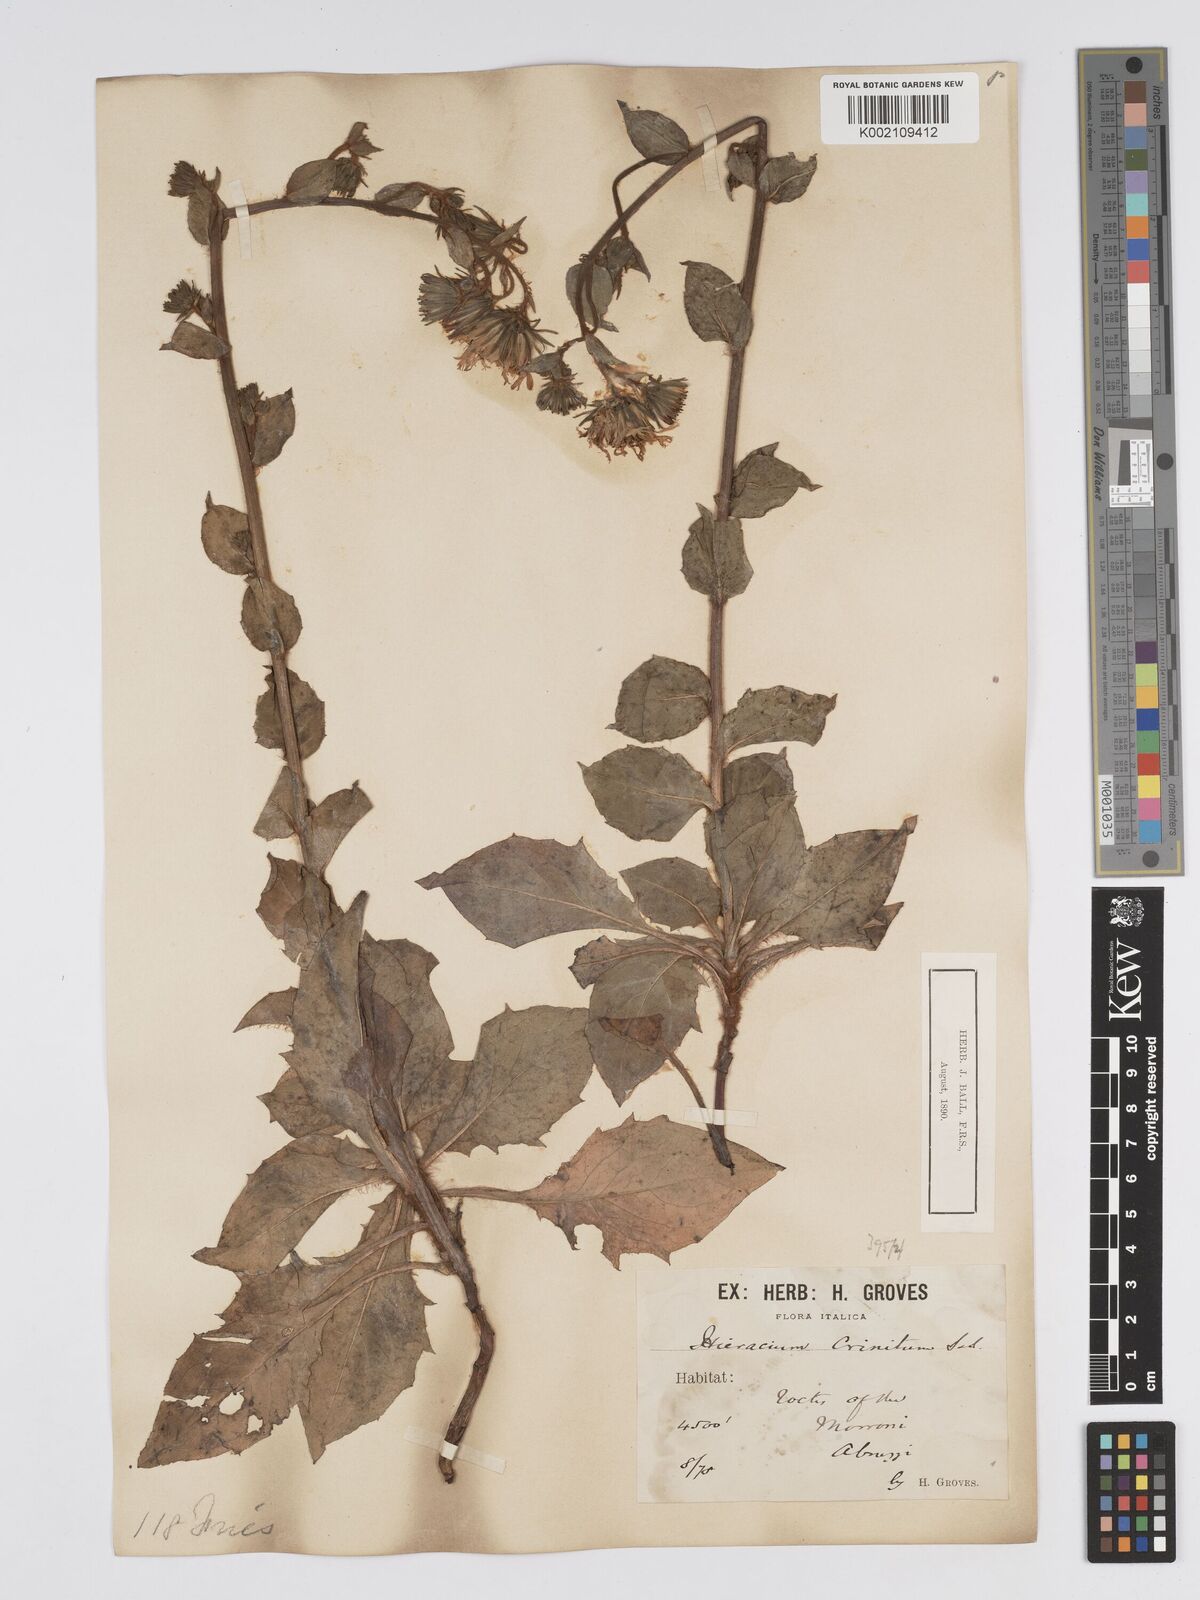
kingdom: Plantae
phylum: Tracheophyta
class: Magnoliopsida
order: Asterales
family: Asteraceae
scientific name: Asteraceae
